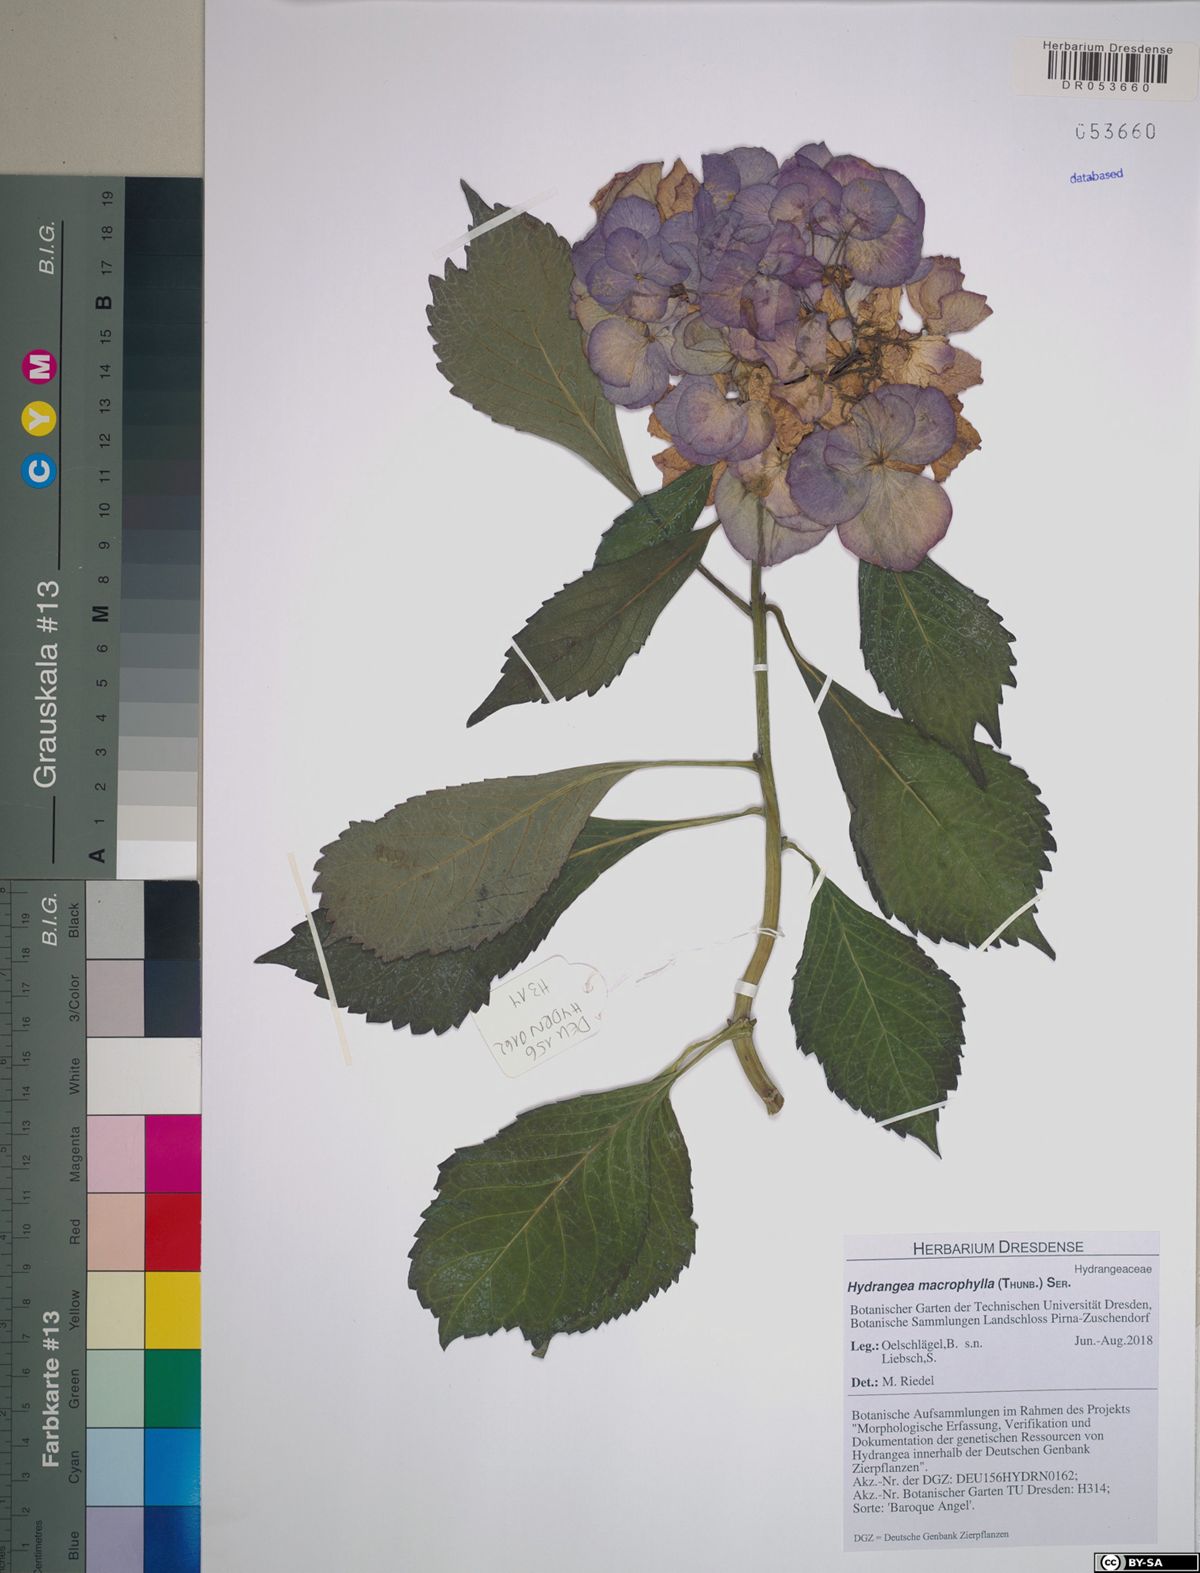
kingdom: Plantae
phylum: Tracheophyta
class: Magnoliopsida
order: Cornales
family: Hydrangeaceae
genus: Hydrangea
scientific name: Hydrangea macrophylla
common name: Hydrangea
